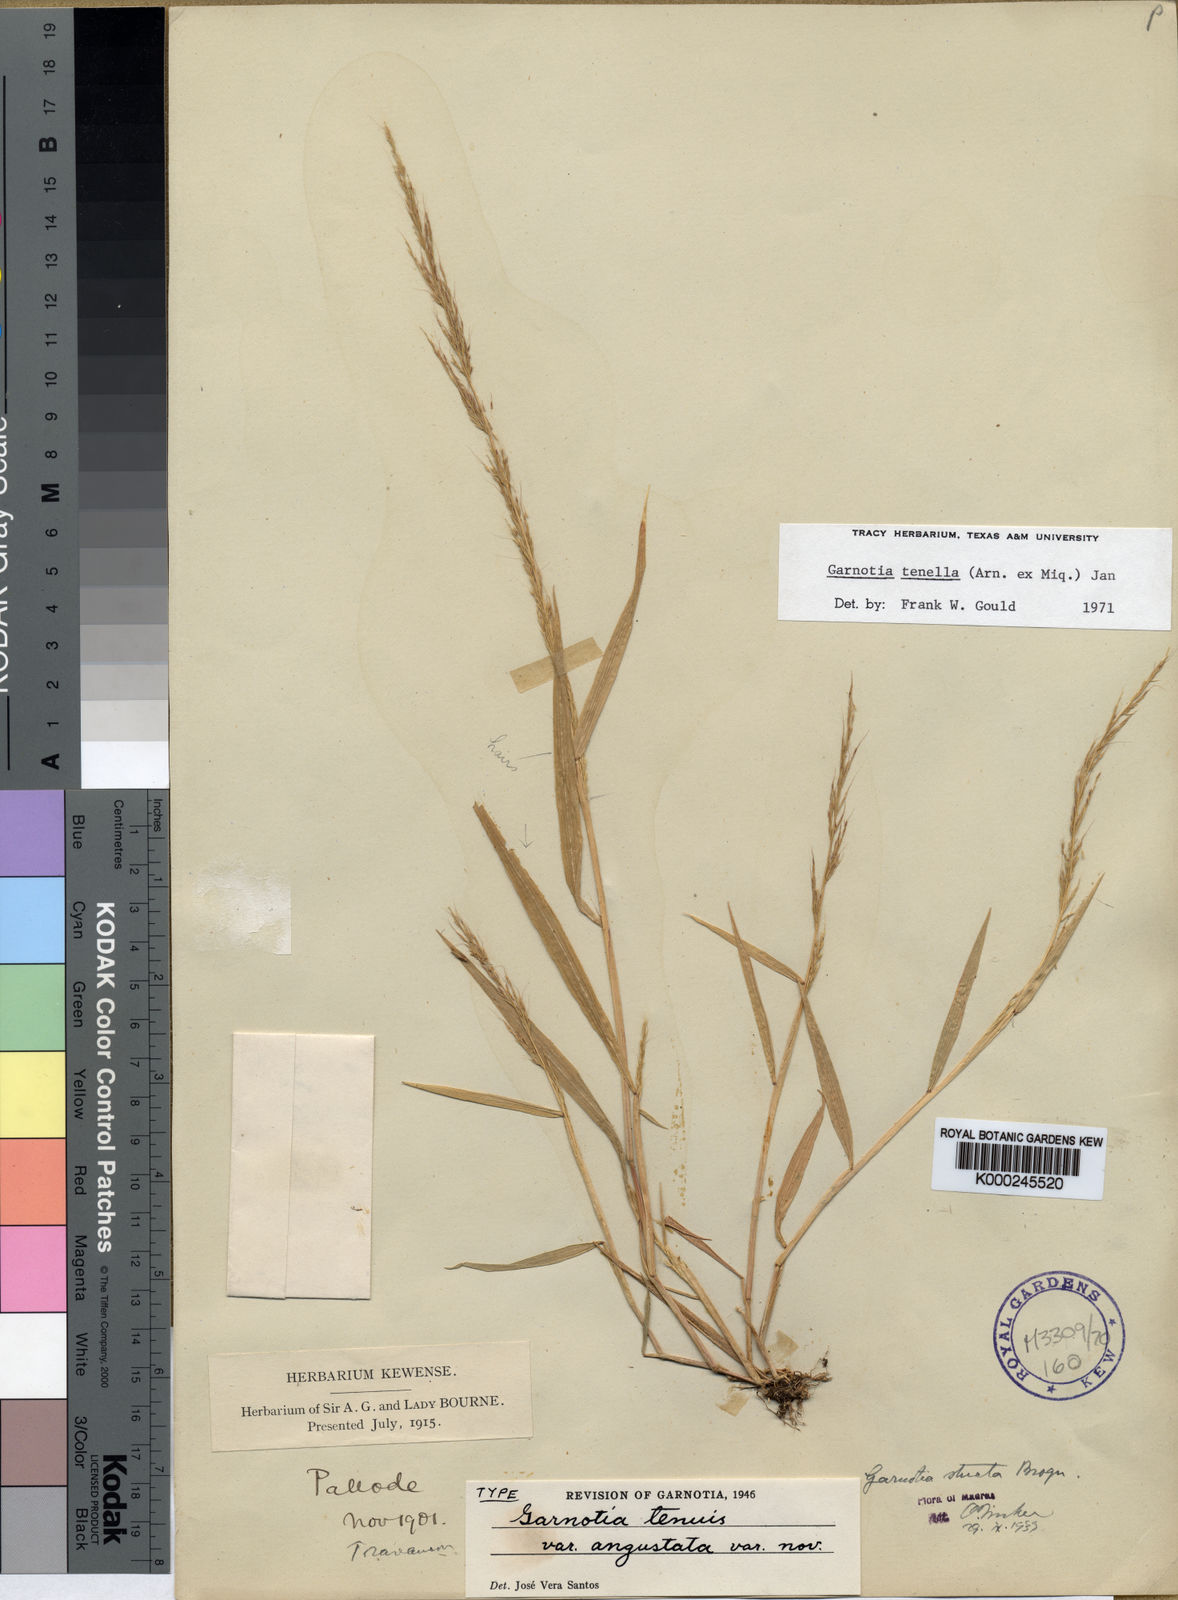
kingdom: Plantae
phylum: Tracheophyta
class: Liliopsida
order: Poales
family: Poaceae
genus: Garnotia
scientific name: Garnotia tenella
